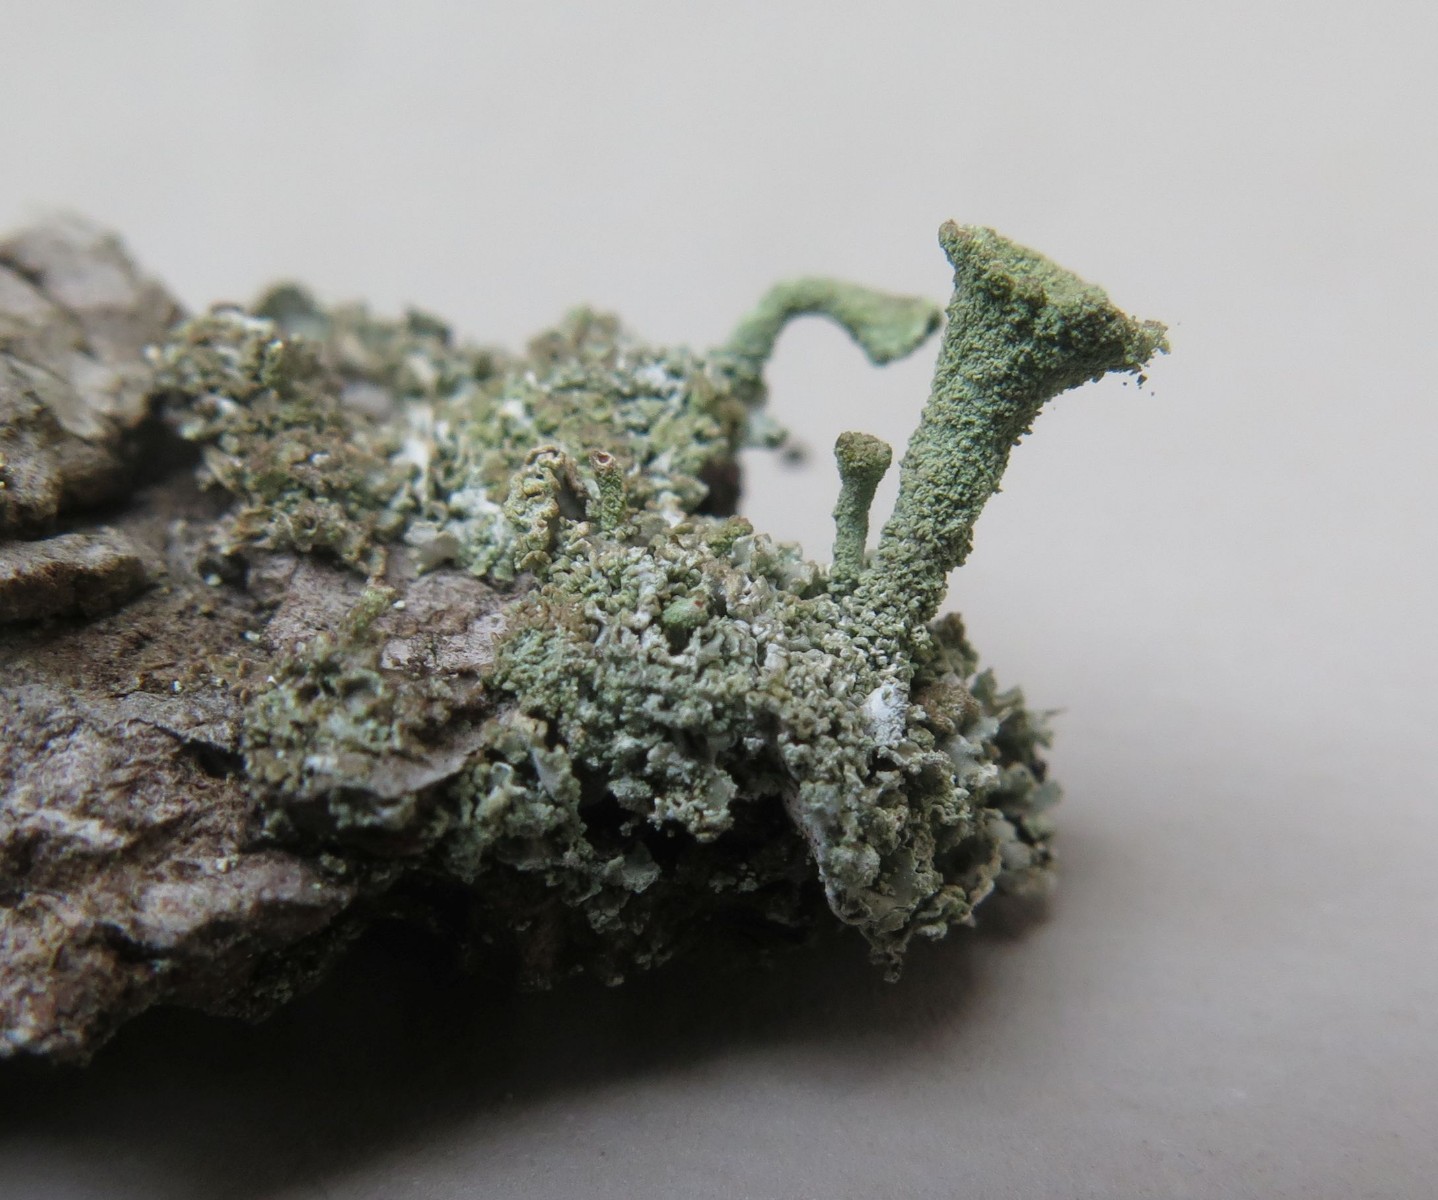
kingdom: Fungi
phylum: Ascomycota
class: Lecanoromycetes
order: Lecanorales
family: Cladoniaceae
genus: Cladonia
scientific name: Cladonia chlorophaea
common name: Mealy pixie cup
